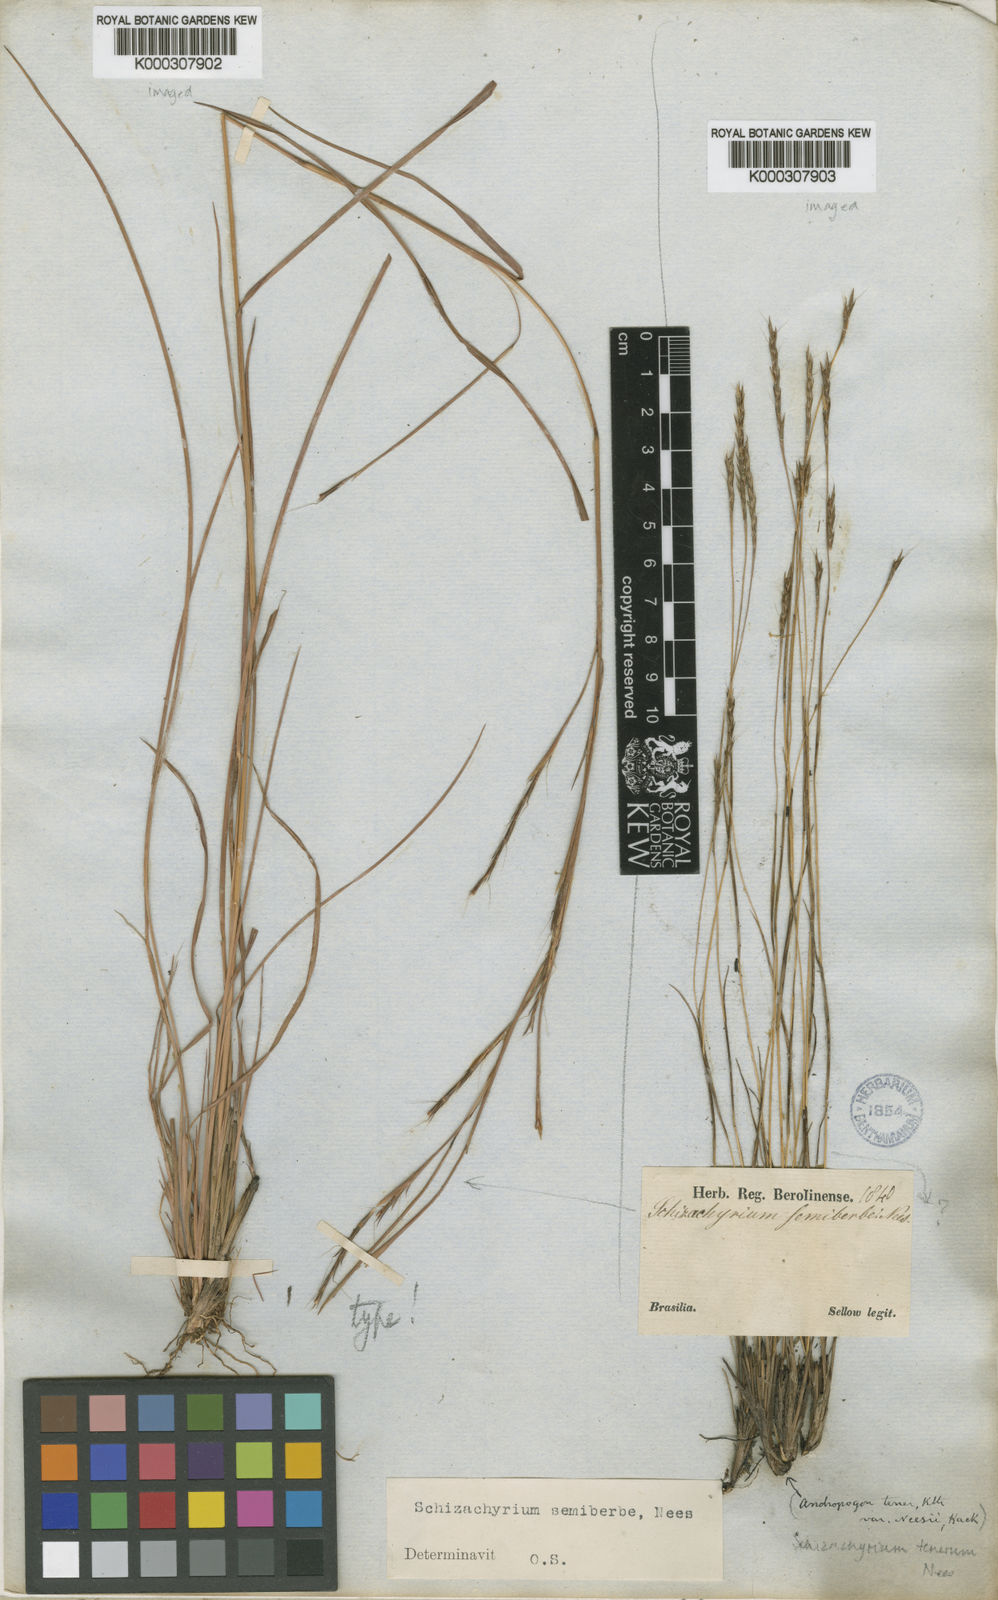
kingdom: Plantae
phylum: Tracheophyta
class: Liliopsida
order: Poales
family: Poaceae
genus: Schizachyrium
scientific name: Schizachyrium sanguineum
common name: Crimson bluestem
